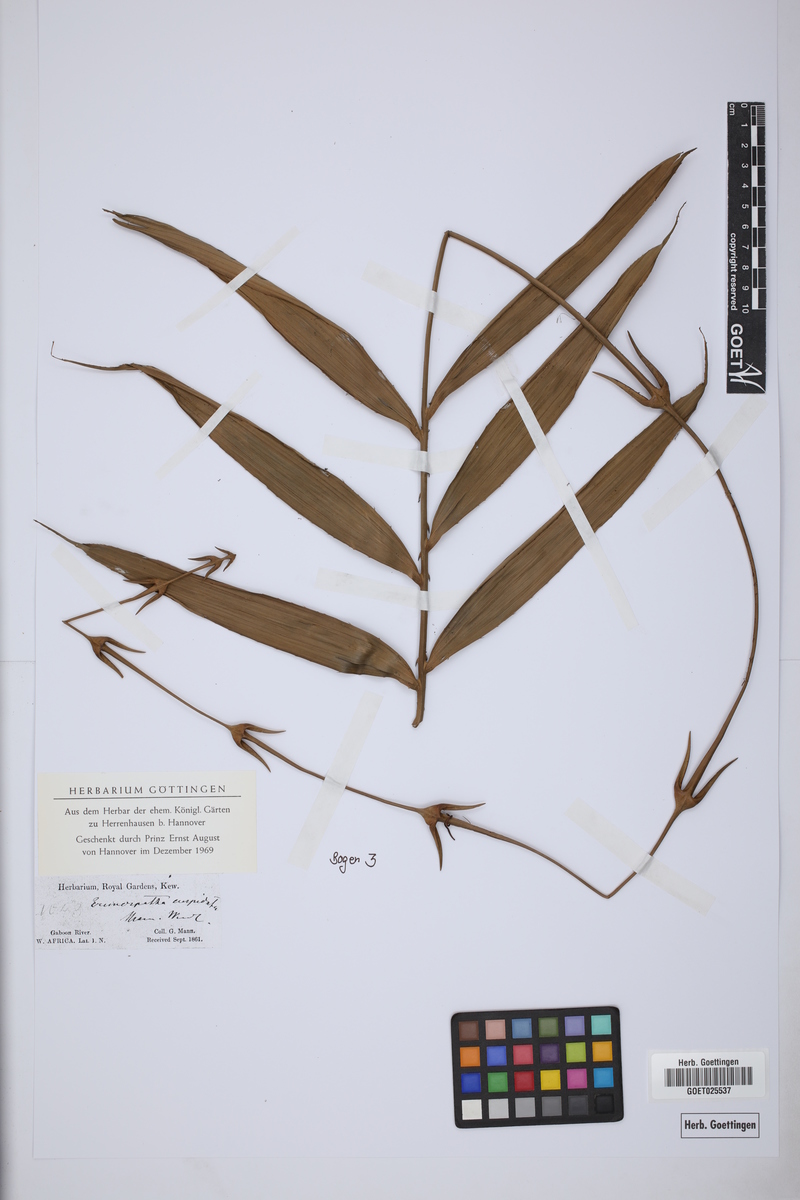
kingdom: Plantae
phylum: Tracheophyta
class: Liliopsida
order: Arecales
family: Arecaceae
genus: Eremospatha
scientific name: Eremospatha cuspidata
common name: Rattan
